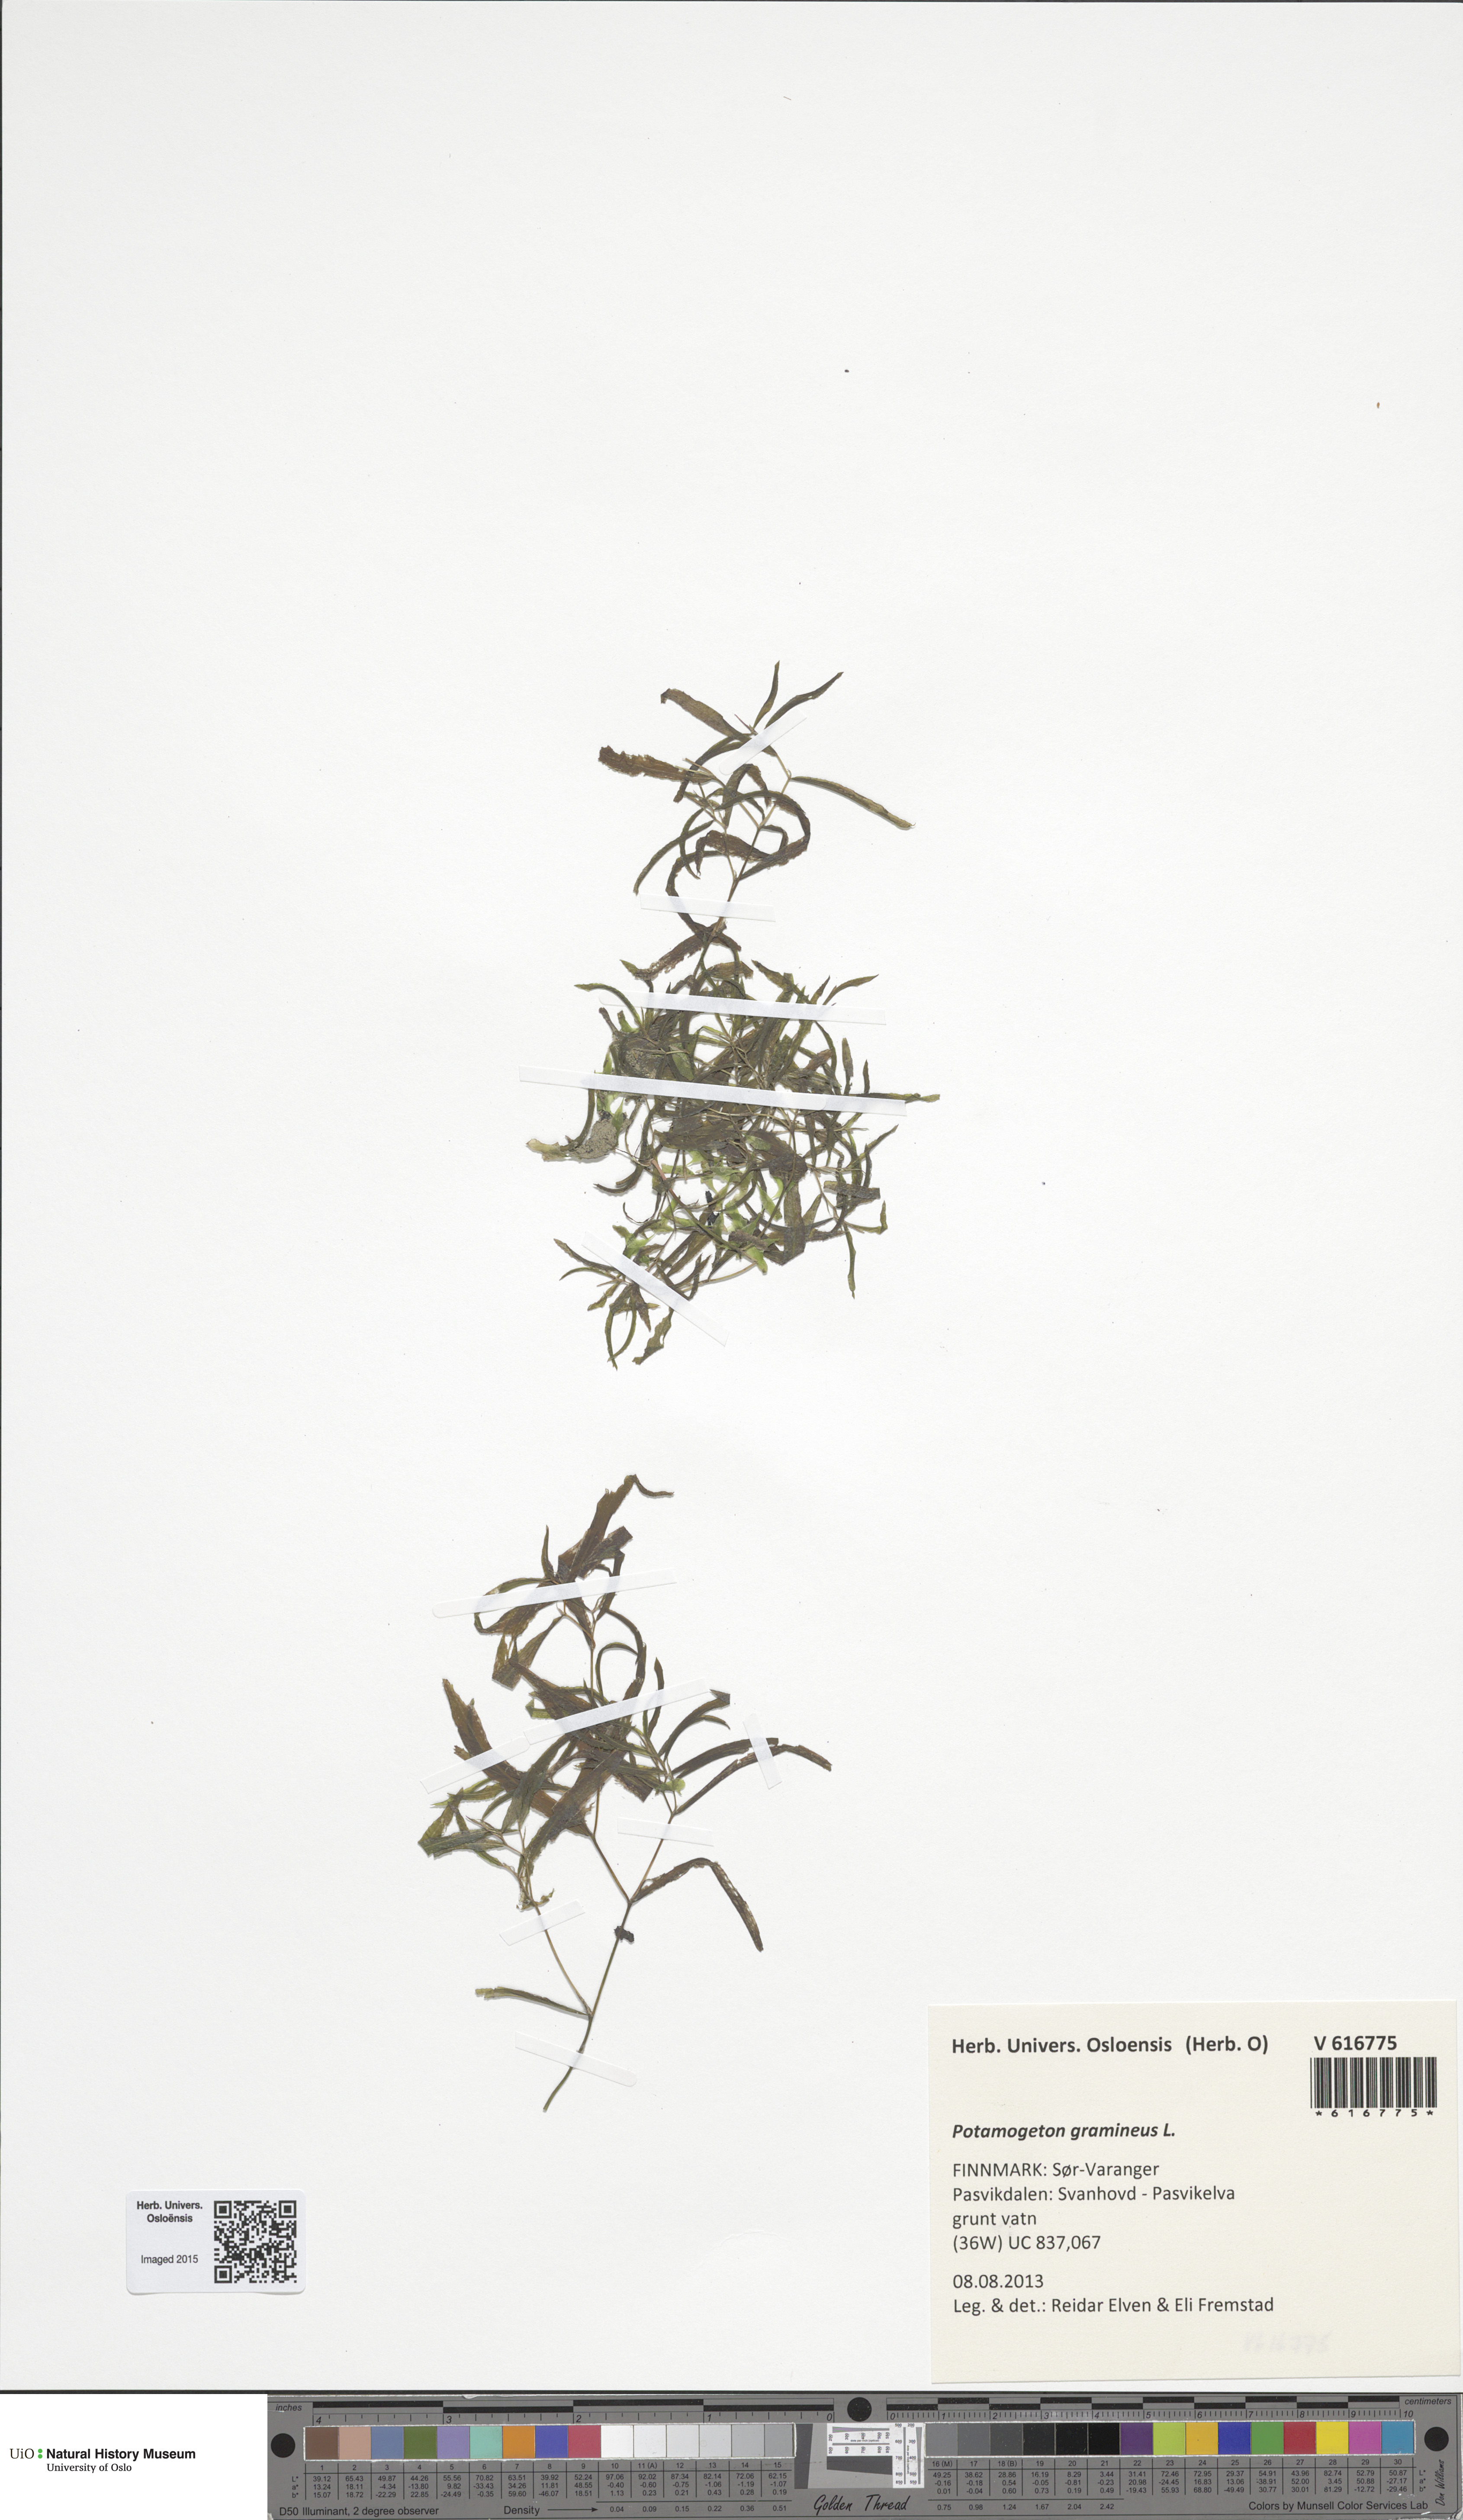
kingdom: Plantae
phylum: Tracheophyta
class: Liliopsida
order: Alismatales
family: Potamogetonaceae
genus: Potamogeton
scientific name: Potamogeton gramineus
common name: Various-leaved pondweed
